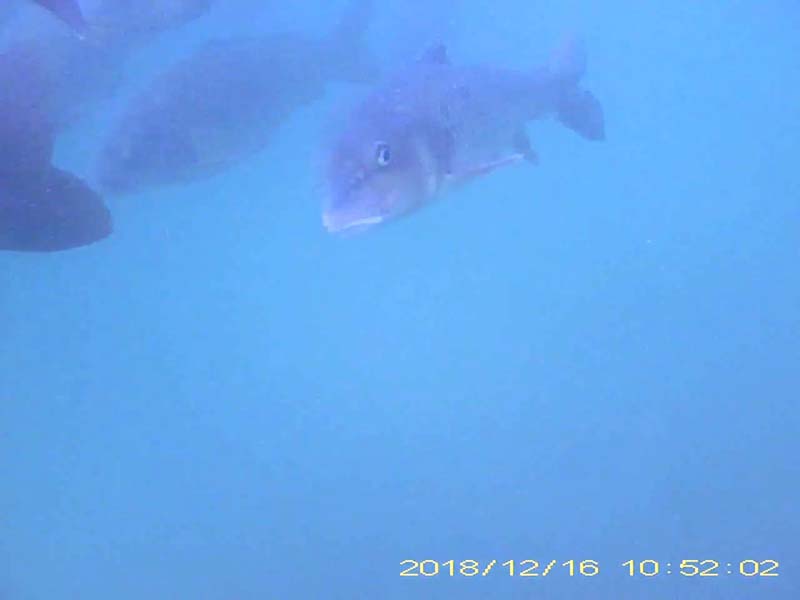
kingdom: Animalia
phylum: Chordata
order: Cypriniformes
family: Cyprinidae
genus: Hemibarbus
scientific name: Hemibarbus labeo
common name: ニゴイ
